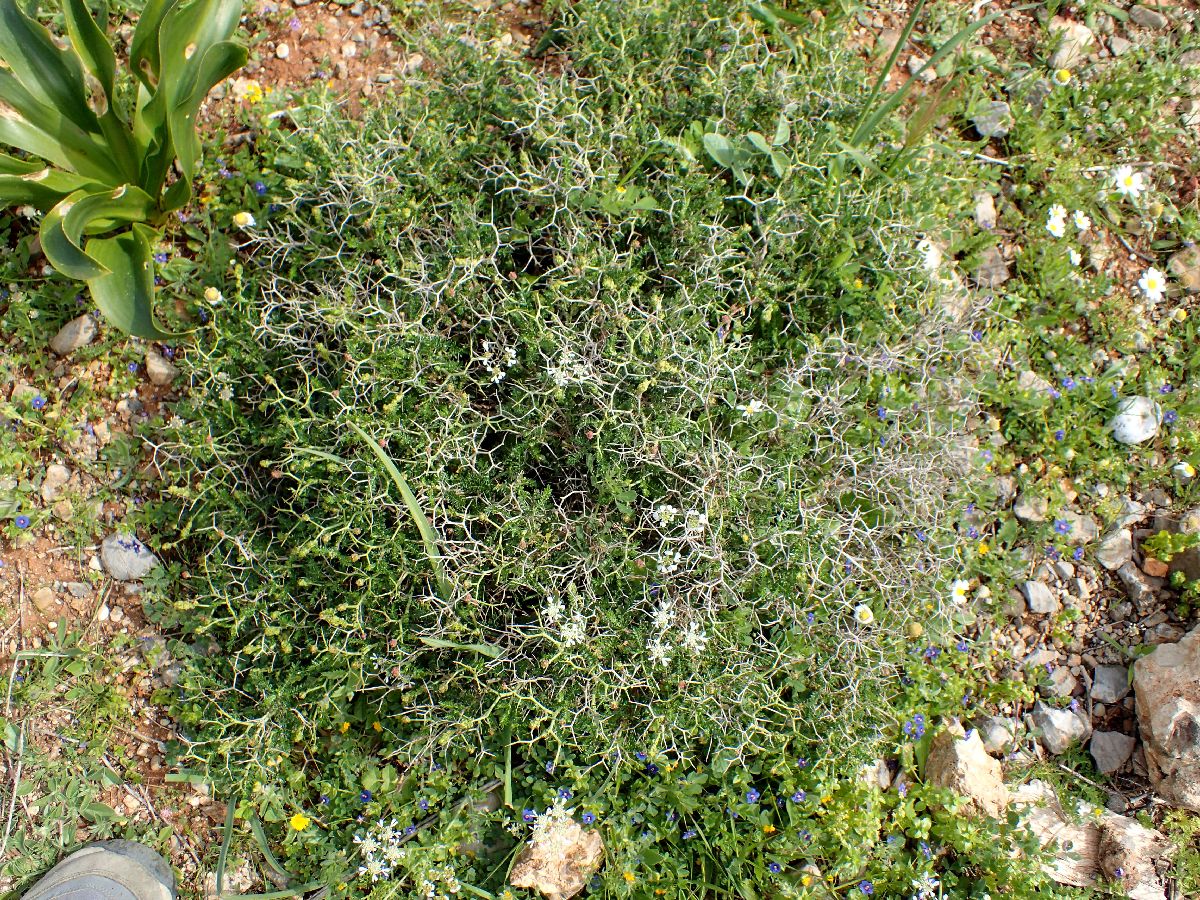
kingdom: Plantae
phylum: Tracheophyta
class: Magnoliopsida
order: Rosales
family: Rosaceae
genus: Sarcopoterium
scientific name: Sarcopoterium spinosum
